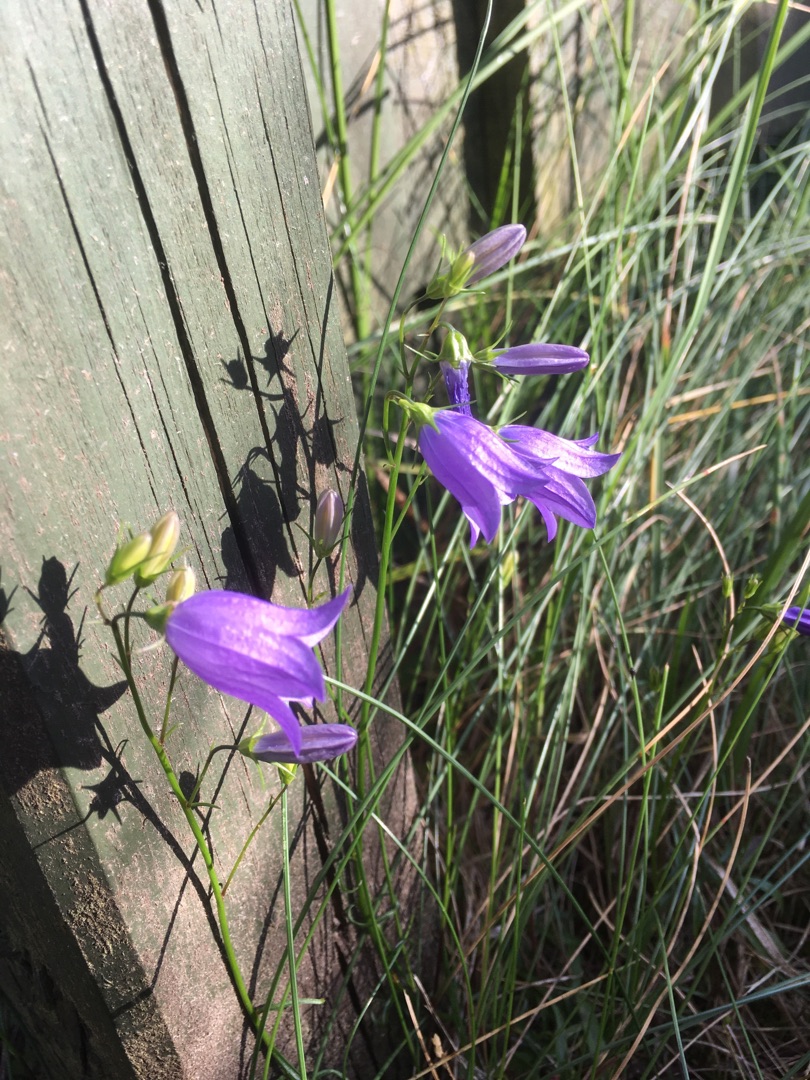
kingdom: Plantae
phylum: Tracheophyta
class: Magnoliopsida
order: Asterales
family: Campanulaceae
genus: Campanula
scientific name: Campanula rotundifolia
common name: Liden klokke
